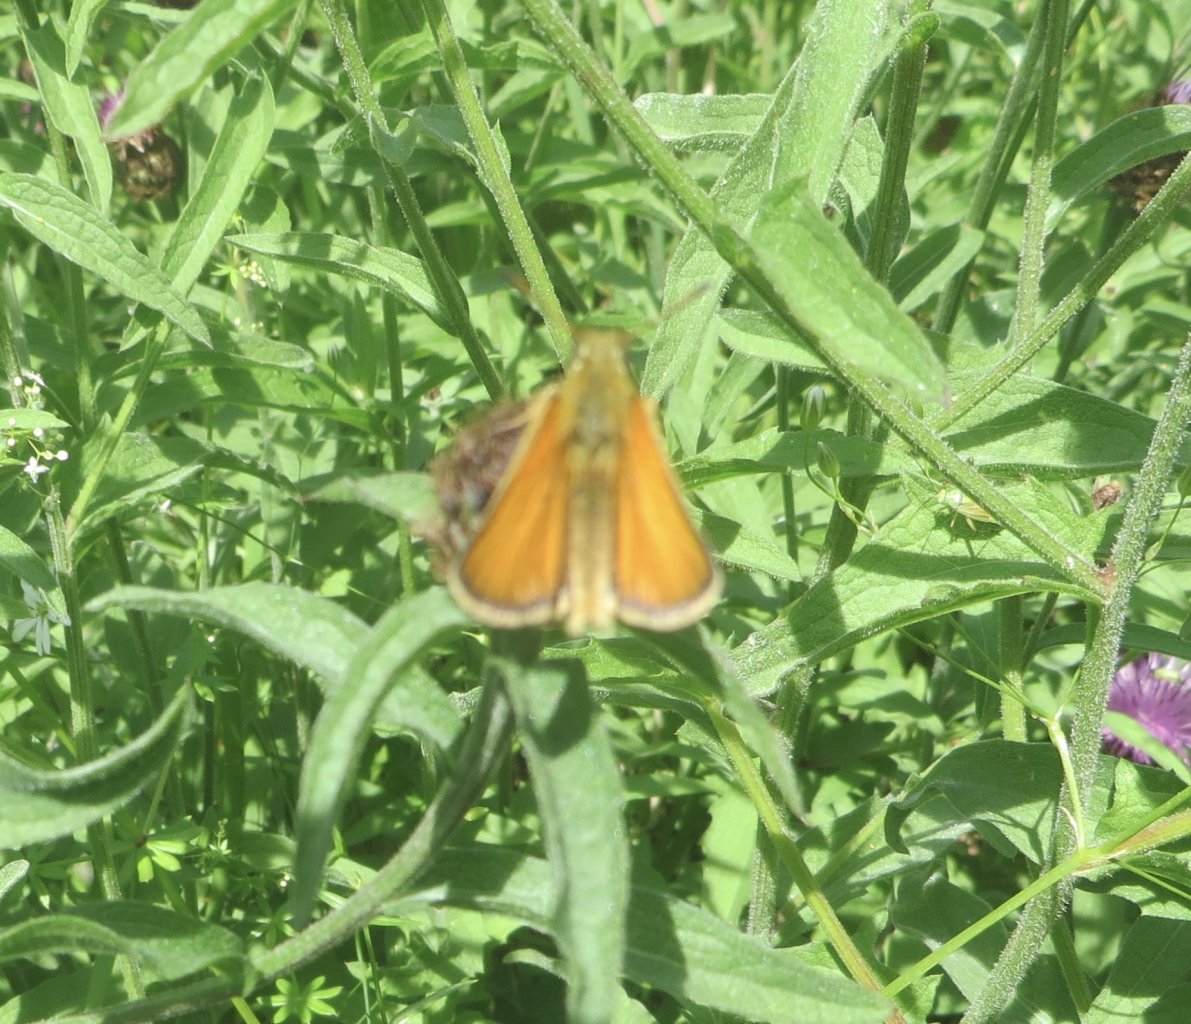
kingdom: Animalia
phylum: Arthropoda
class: Insecta
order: Lepidoptera
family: Hesperiidae
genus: Thymelicus
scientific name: Thymelicus lineola
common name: European Skipper
